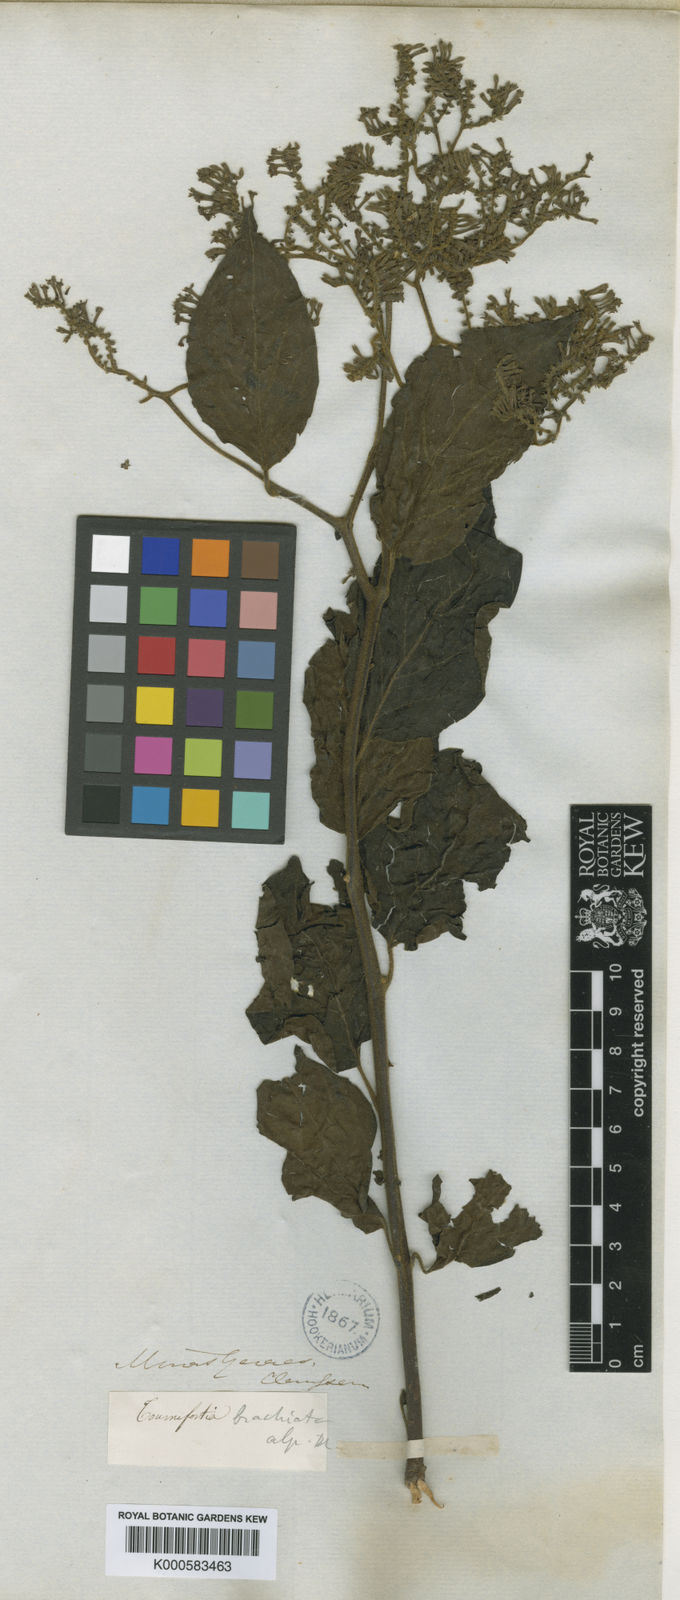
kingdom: Plantae
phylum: Tracheophyta
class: Magnoliopsida
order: Boraginales
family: Heliotropiaceae
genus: Myriopus
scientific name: Myriopus paniculatus
